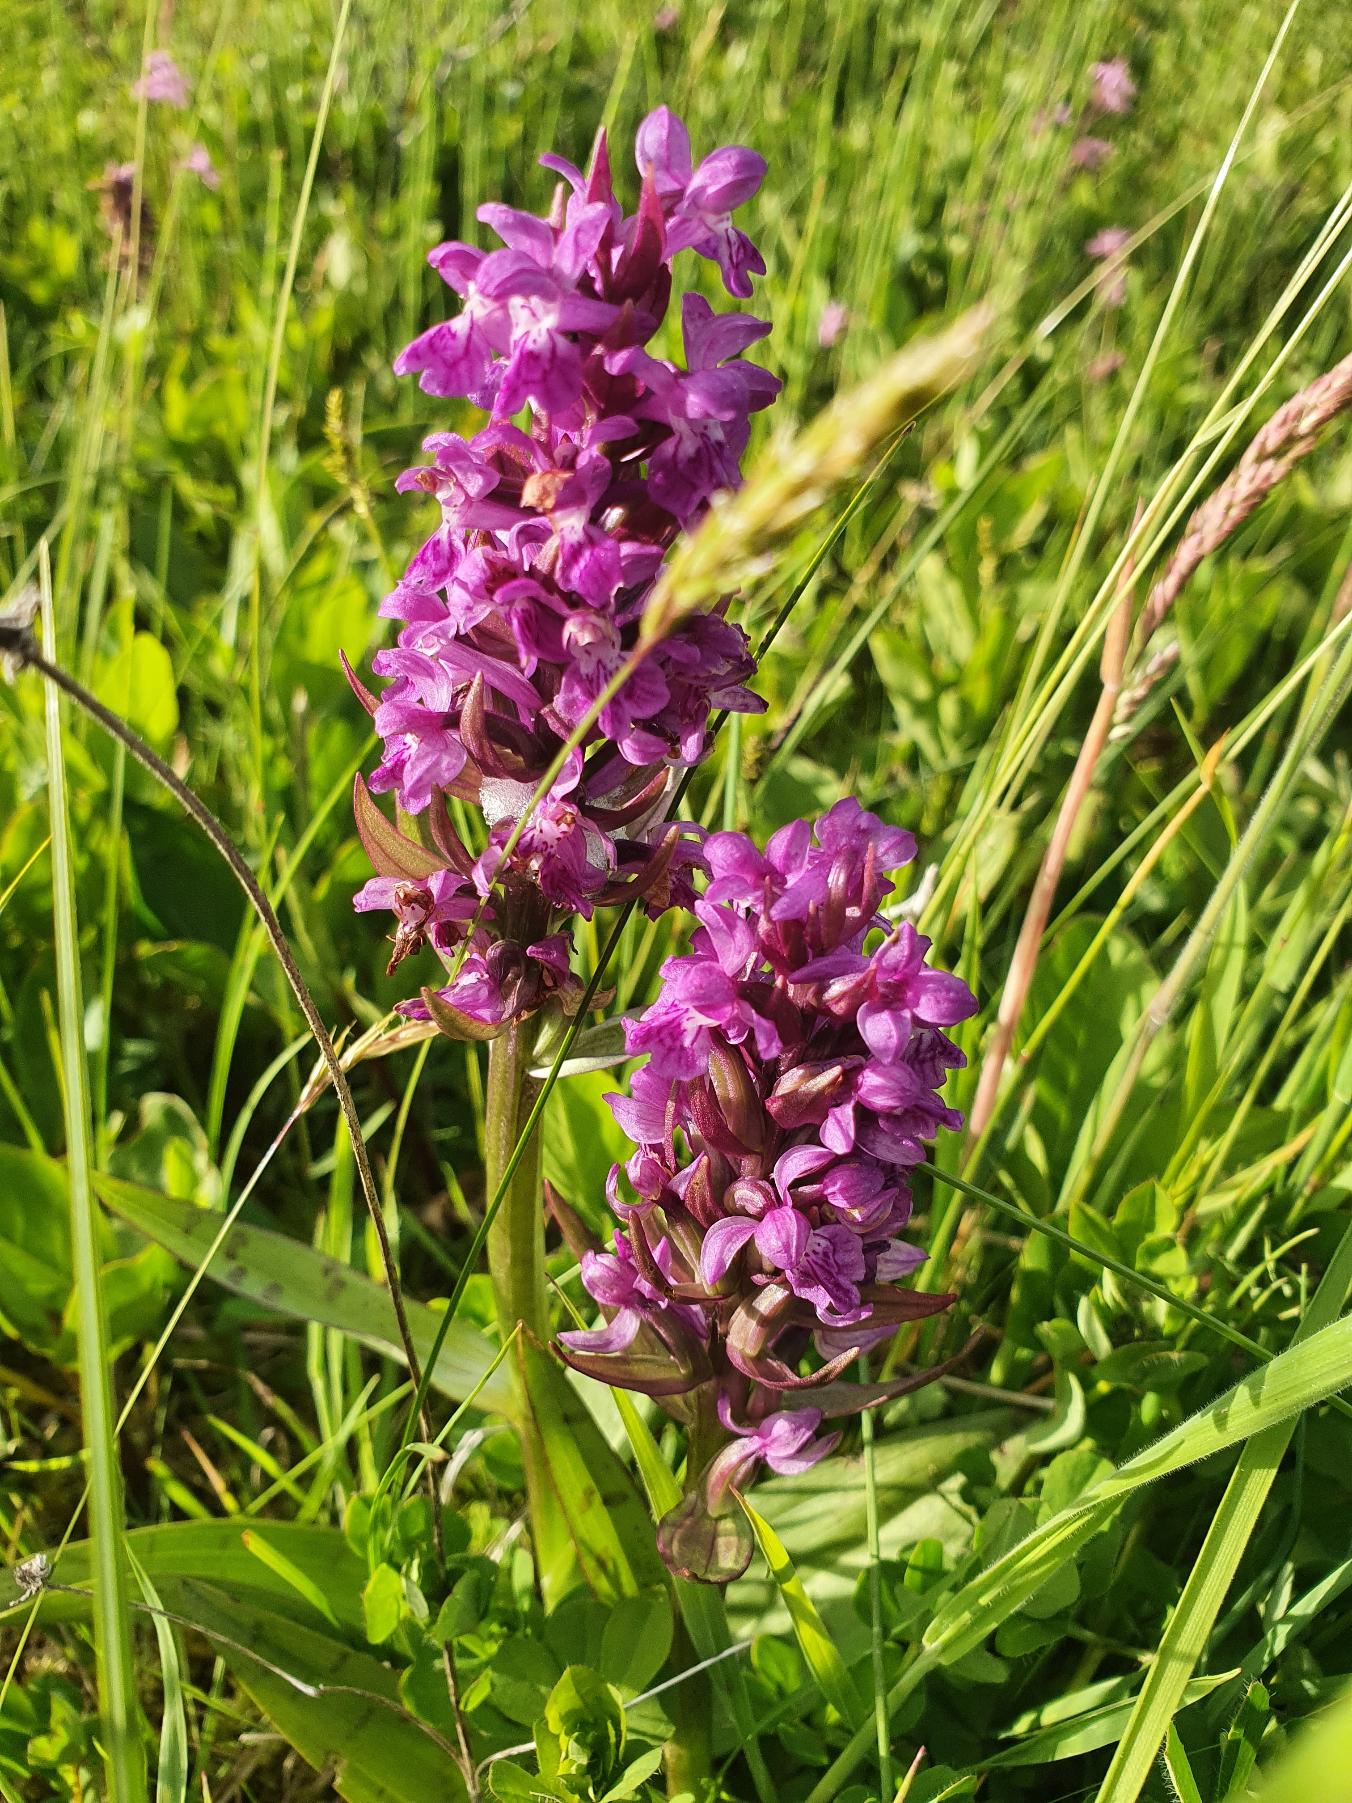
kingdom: Plantae
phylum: Tracheophyta
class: Liliopsida
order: Asparagales
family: Orchidaceae
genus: Dactylorhiza
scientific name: Dactylorhiza majalis
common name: Maj-gøgeurt
